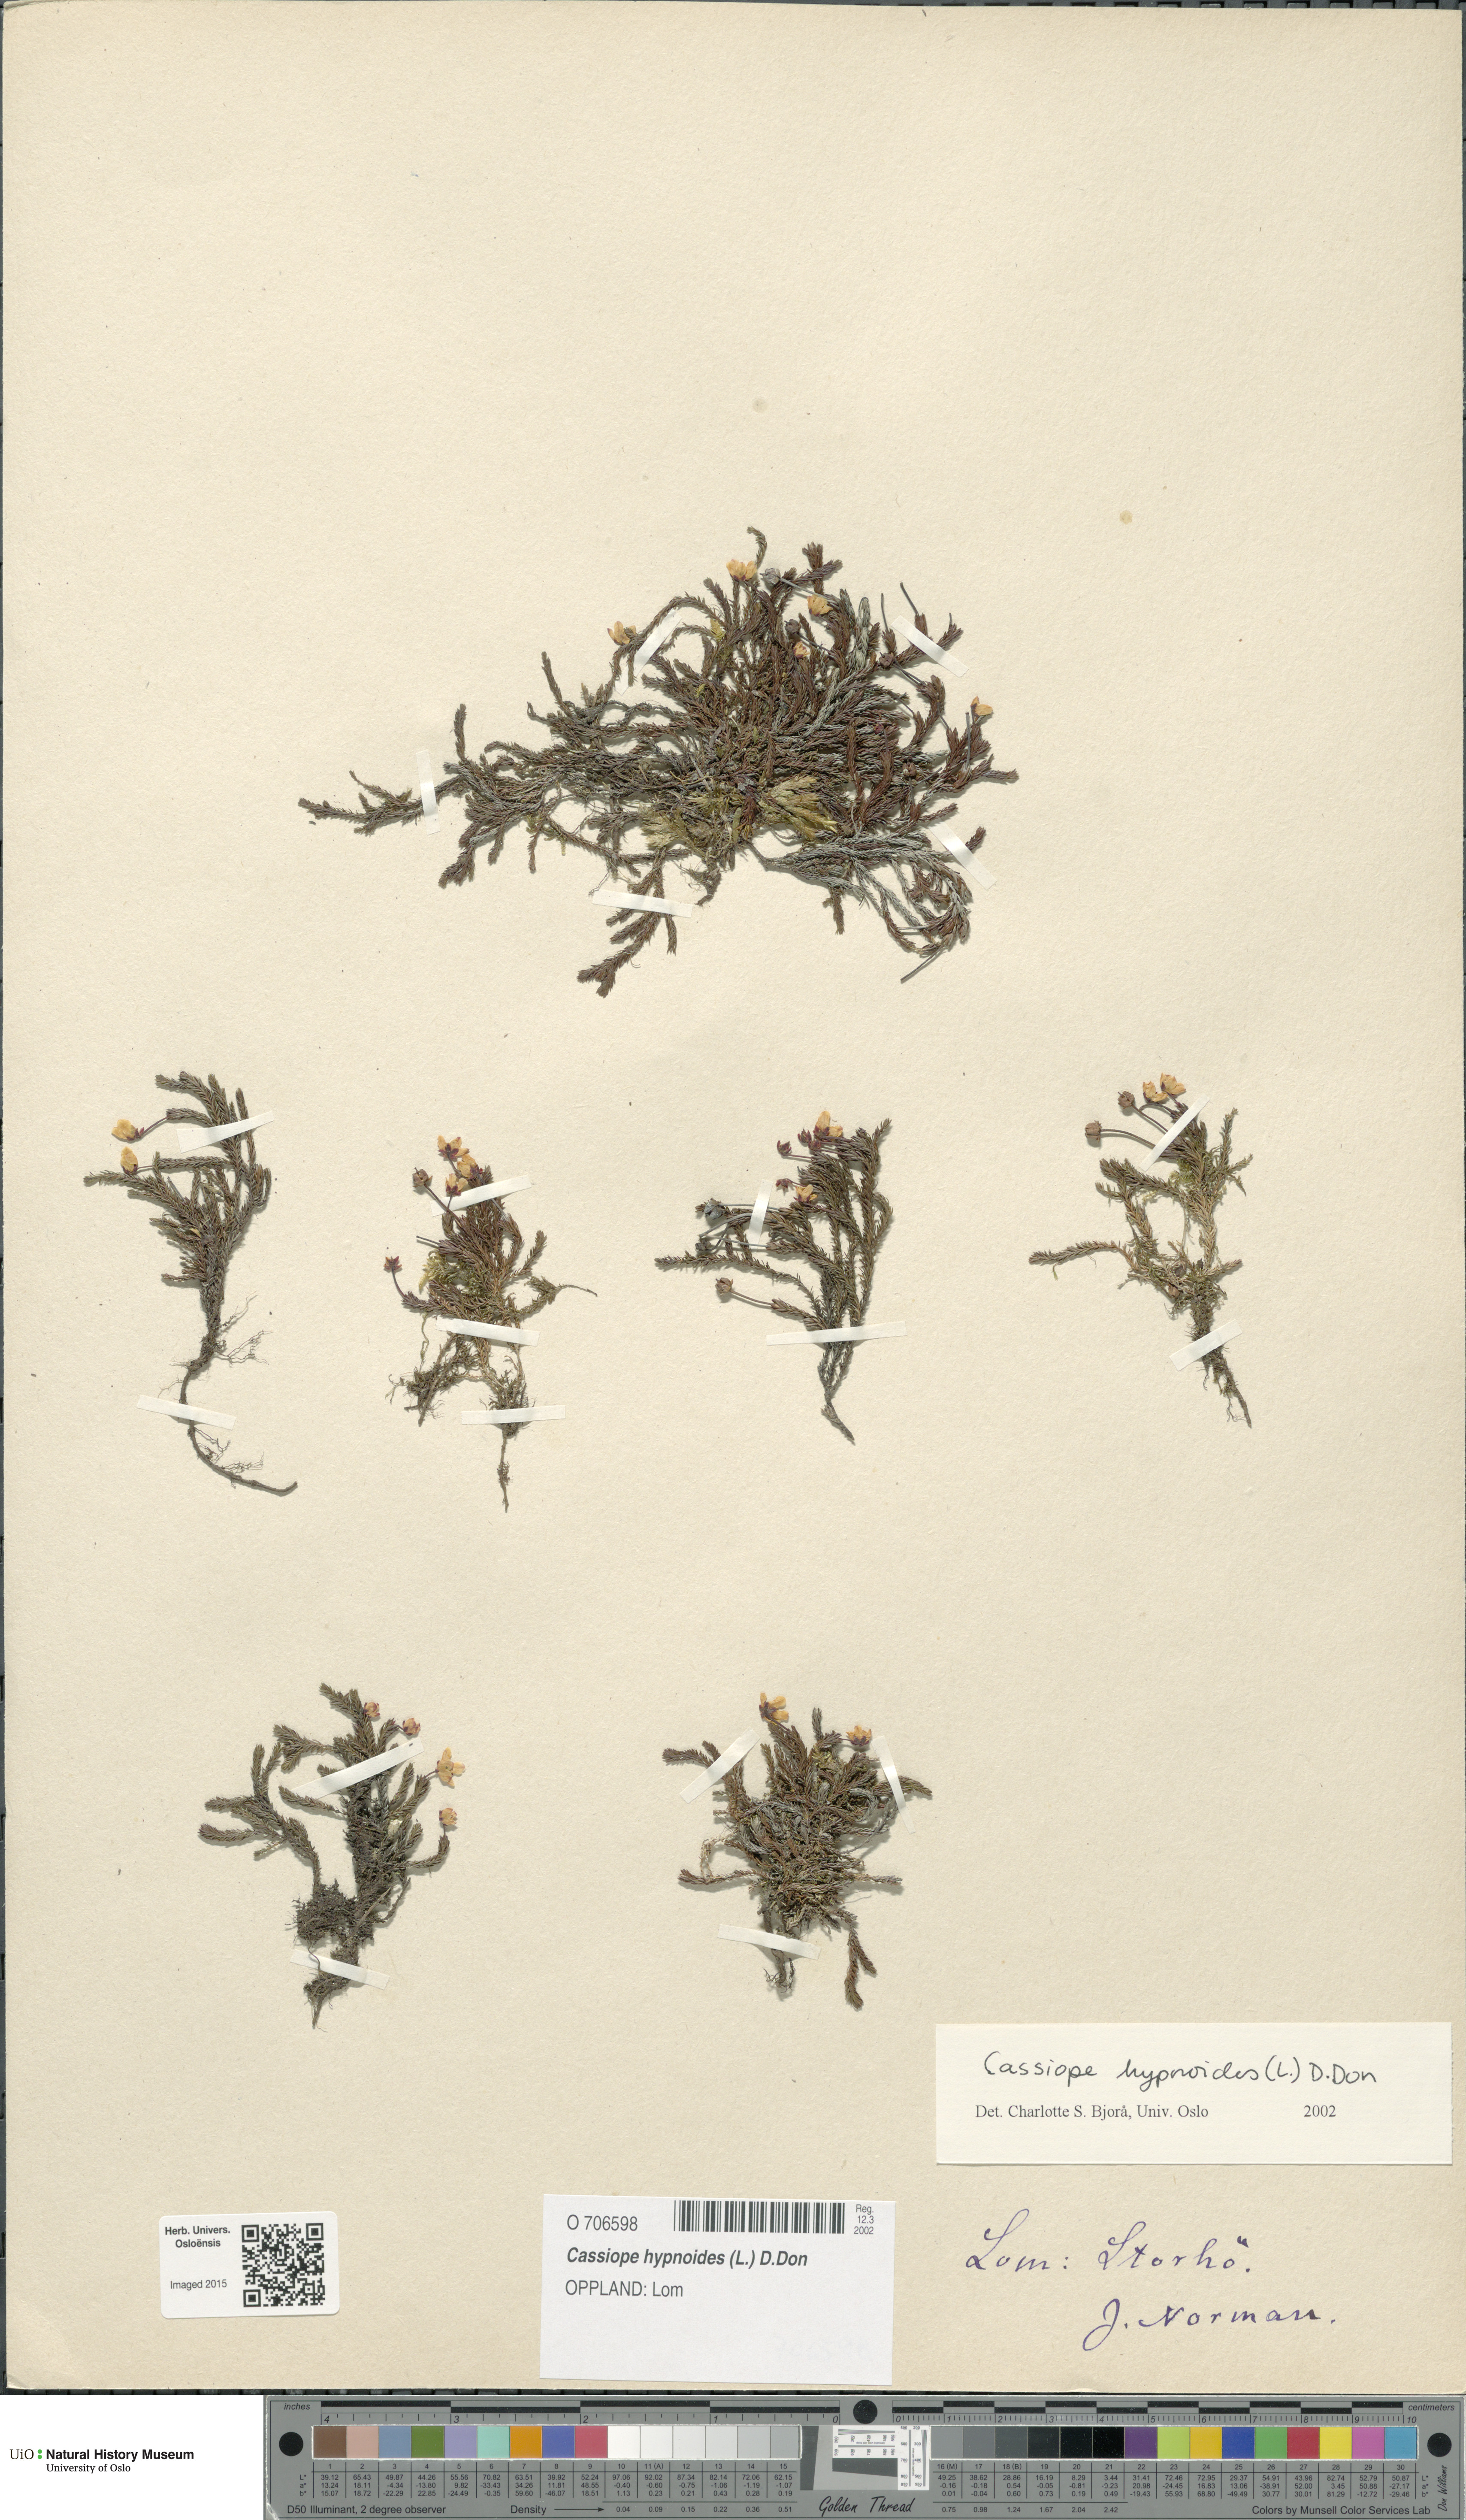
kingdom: Plantae
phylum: Tracheophyta
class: Magnoliopsida
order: Ericales
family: Ericaceae
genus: Harrimanella
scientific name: Harrimanella hypnoides
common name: Moss bell heather
